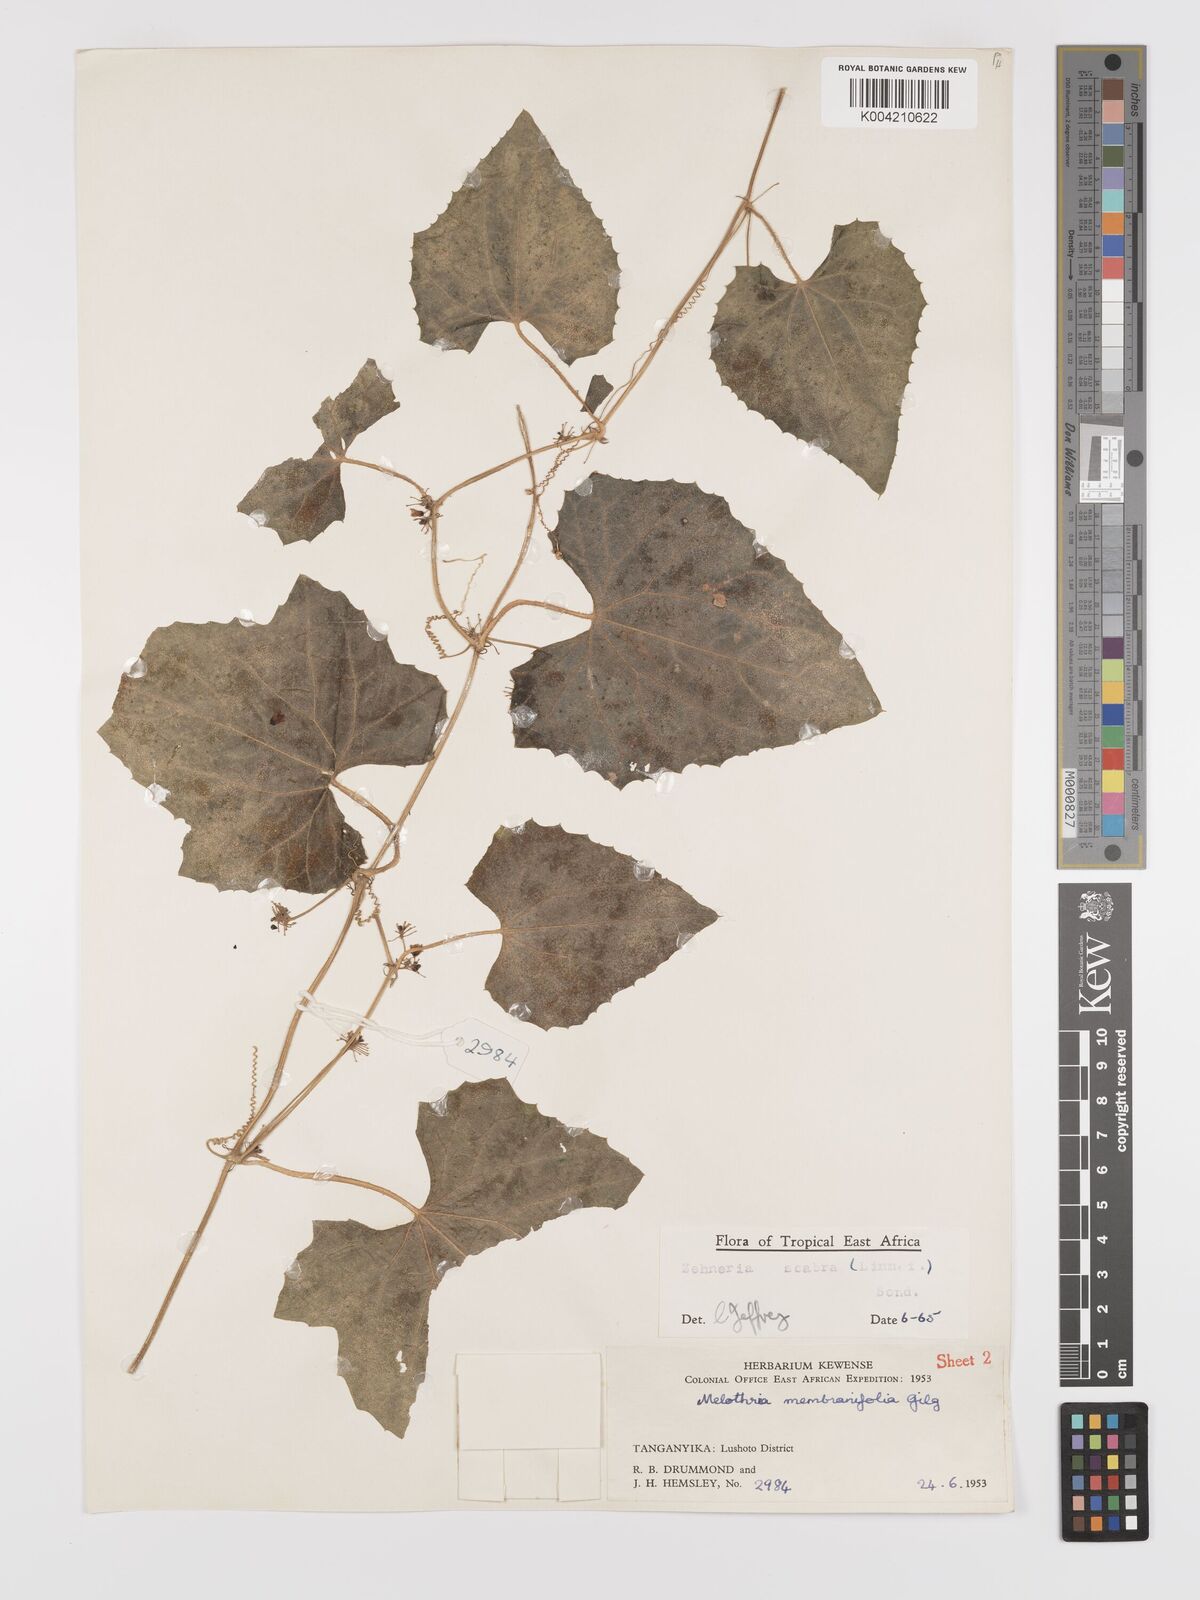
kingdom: Plantae
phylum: Tracheophyta
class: Magnoliopsida
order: Cucurbitales
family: Cucurbitaceae
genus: Zehneria
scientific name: Zehneria scabra
